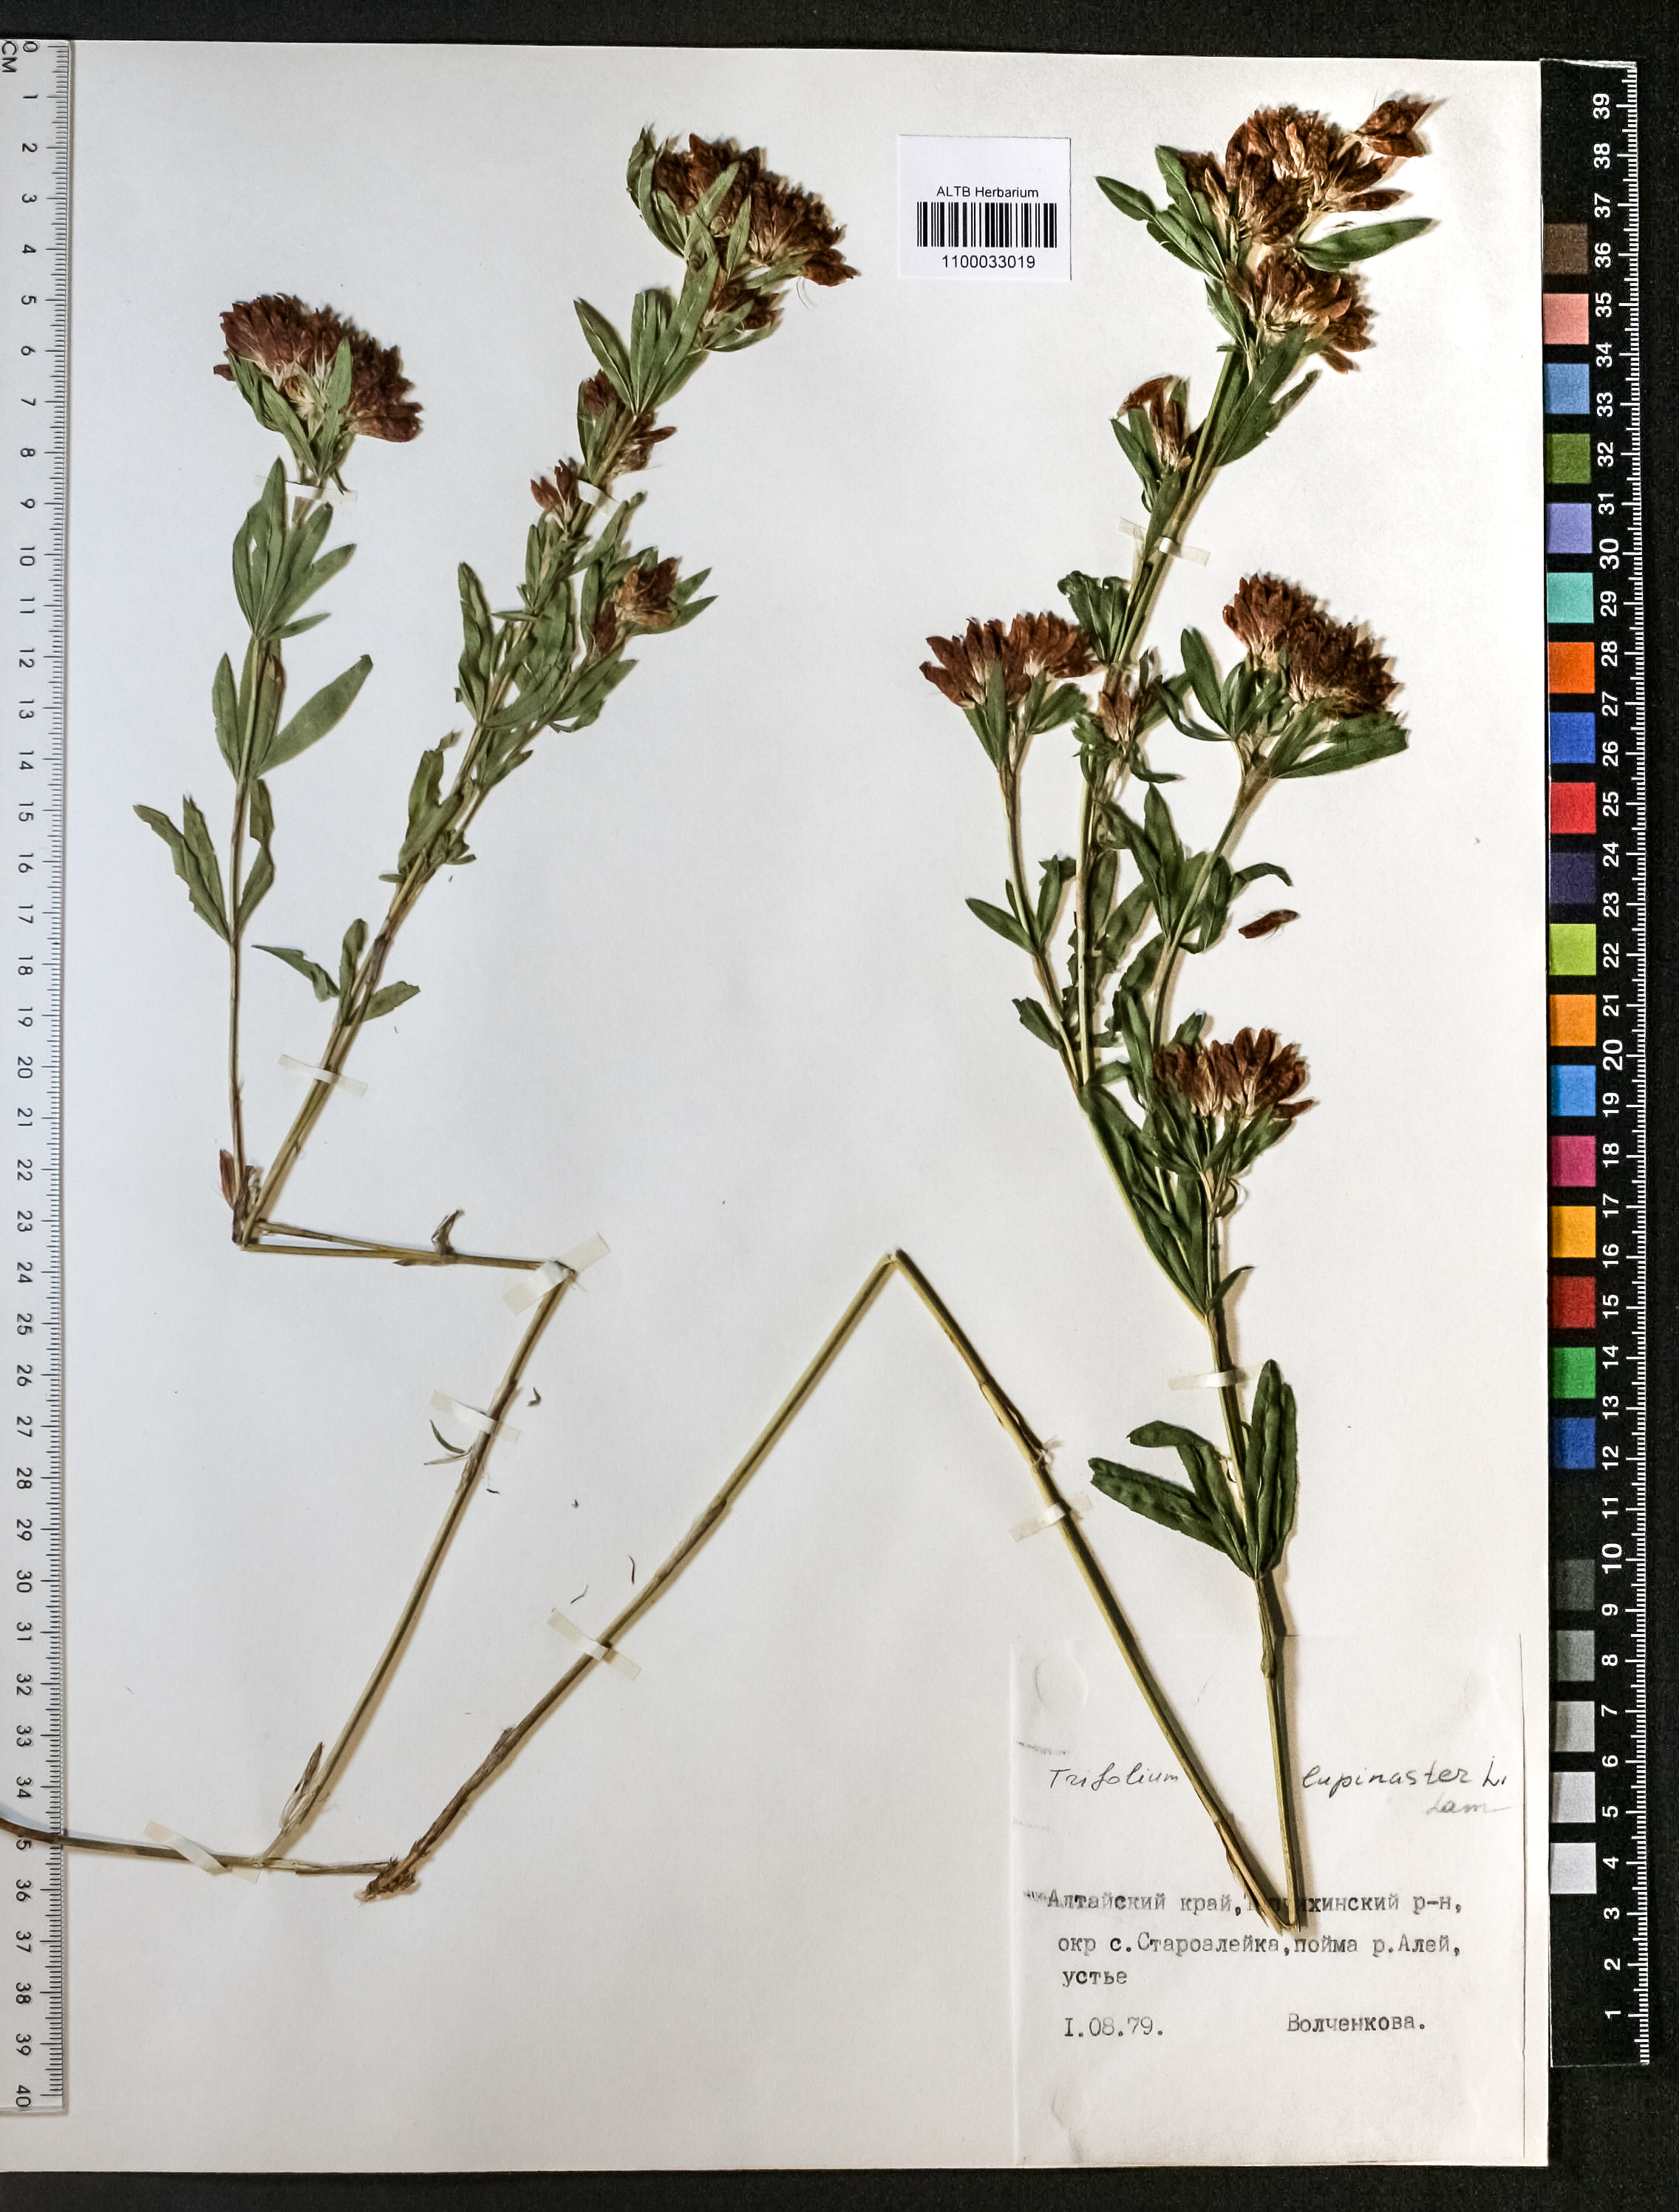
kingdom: Plantae
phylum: Tracheophyta
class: Magnoliopsida
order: Fabales
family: Fabaceae
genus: Trifolium
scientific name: Trifolium lupinaster
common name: Lupine clover
